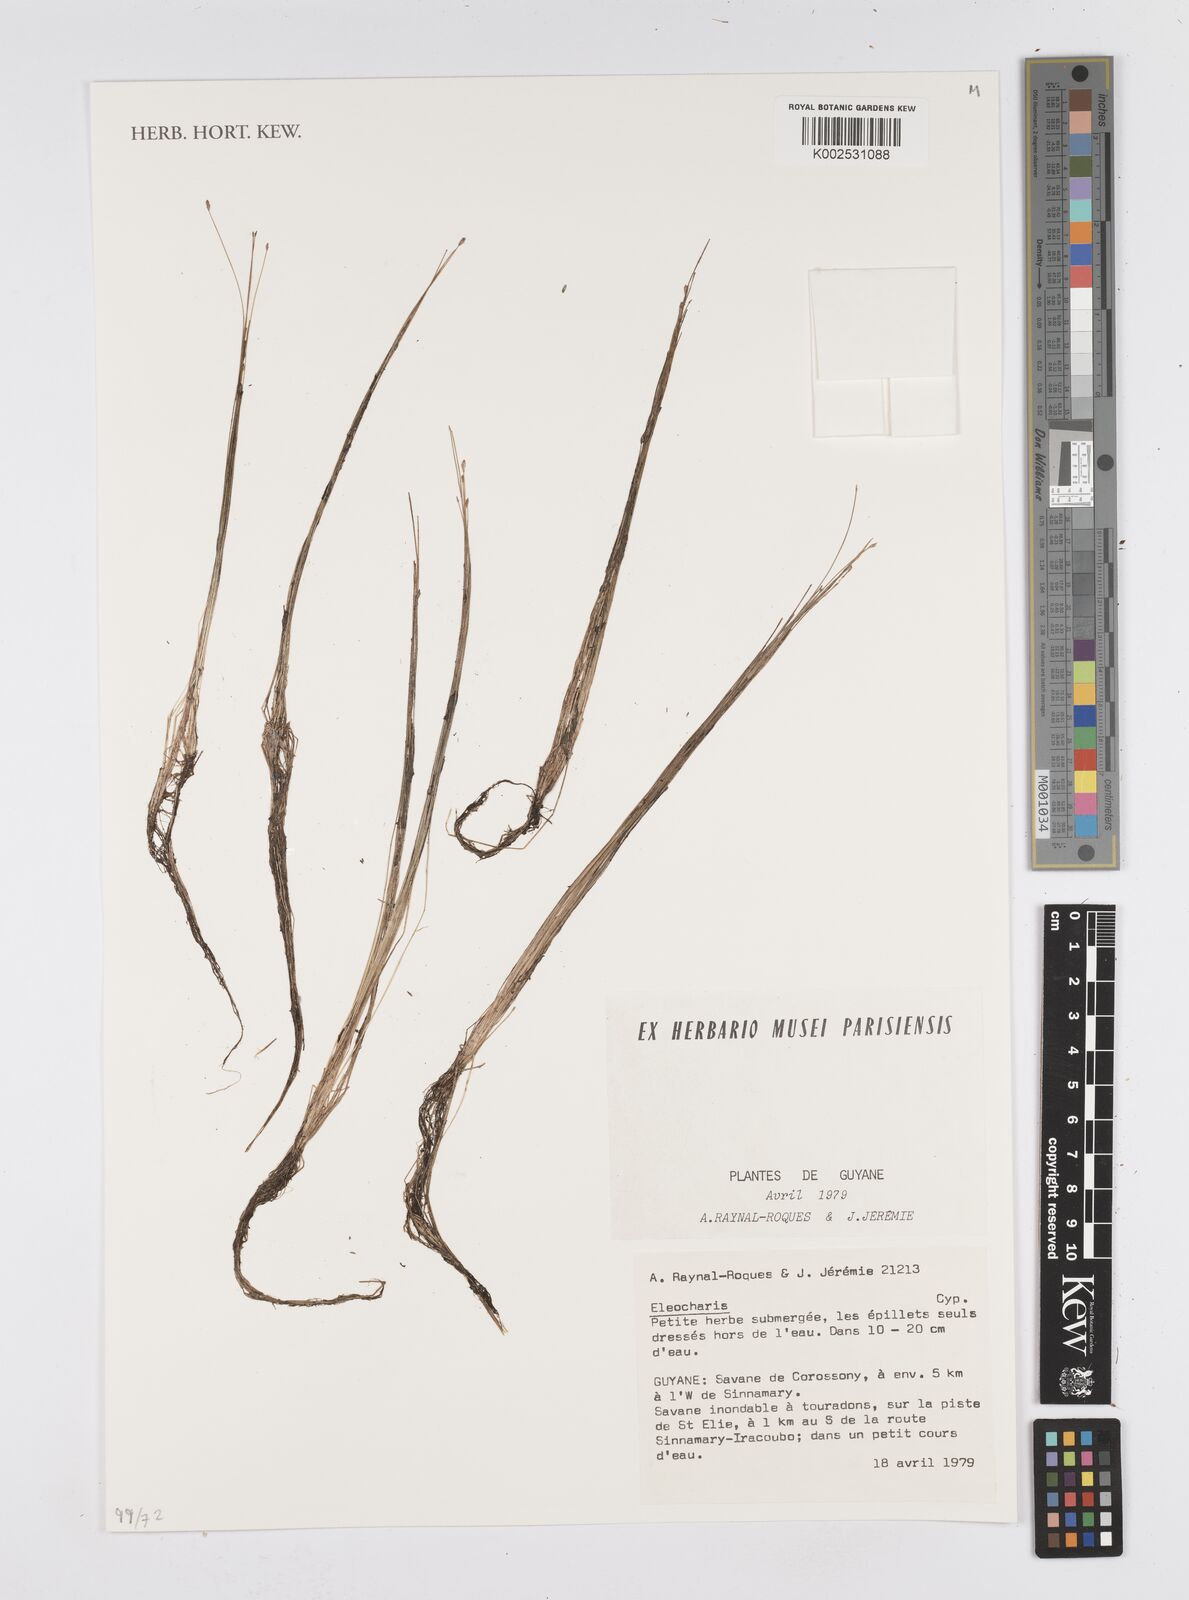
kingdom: Plantae
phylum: Tracheophyta
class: Liliopsida
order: Poales
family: Cyperaceae
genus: Eleocharis
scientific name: Eleocharis
